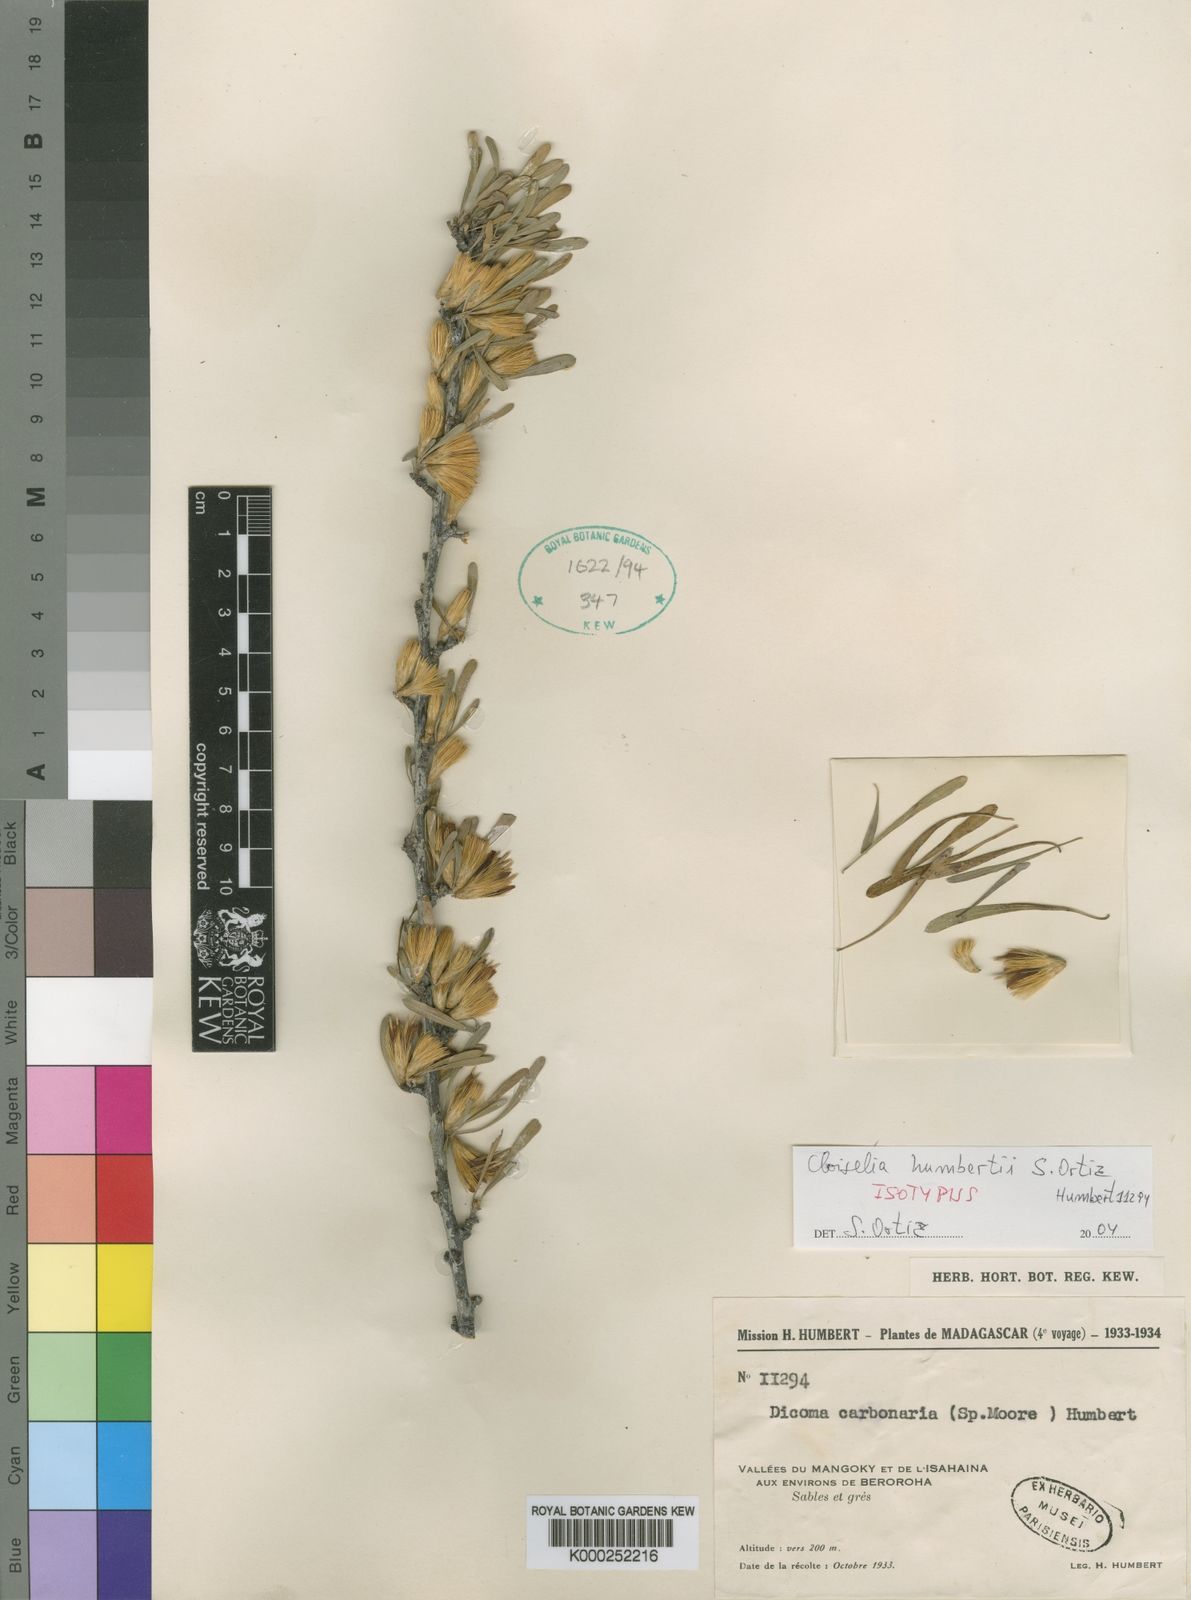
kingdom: Plantae
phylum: Tracheophyta
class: Magnoliopsida
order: Asterales
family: Asteraceae
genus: Cloiselia
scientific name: Cloiselia carbonaria
